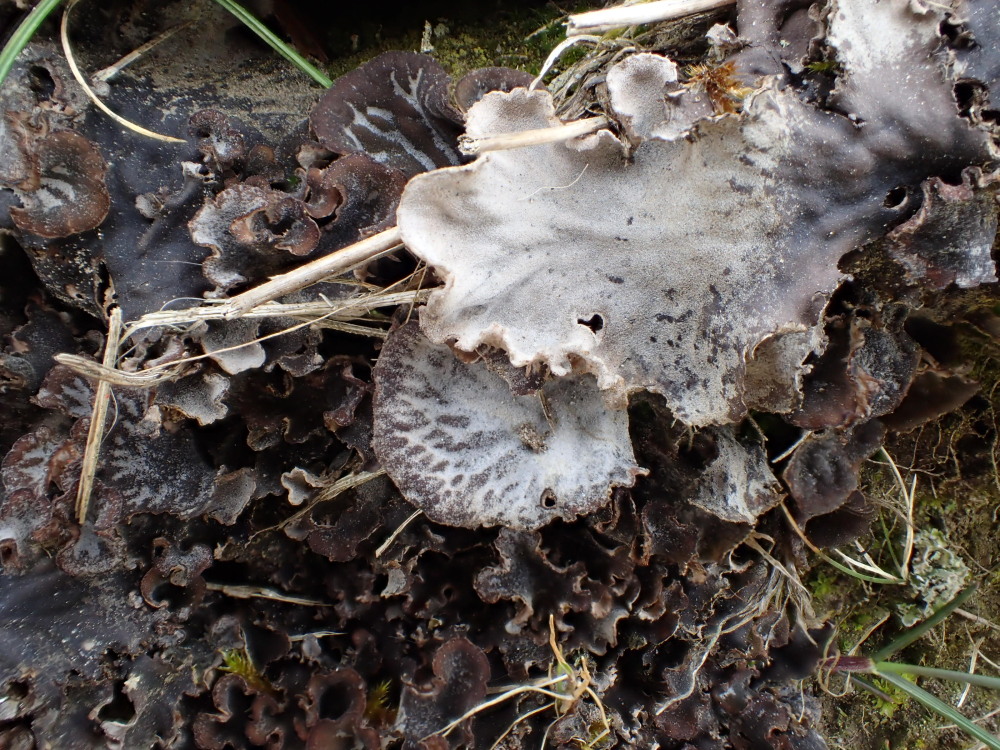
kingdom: Fungi
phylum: Ascomycota
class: Lecanoromycetes
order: Peltigerales
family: Peltigeraceae
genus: Peltigera
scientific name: Peltigera membranacea
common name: tynd skjoldlav
